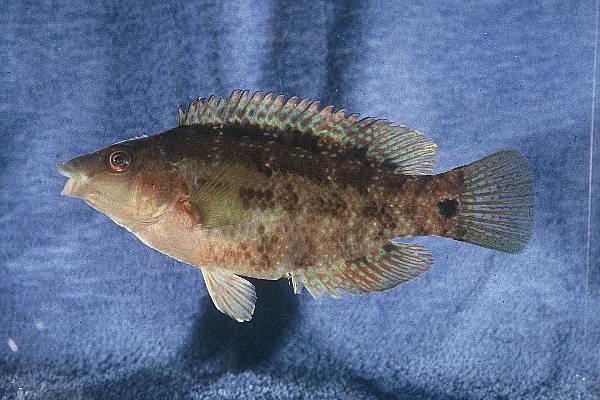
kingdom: Animalia
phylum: Chordata
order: Perciformes
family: Labridae
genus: Symphodus
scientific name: Symphodus trutta
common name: Emerald wrasse
